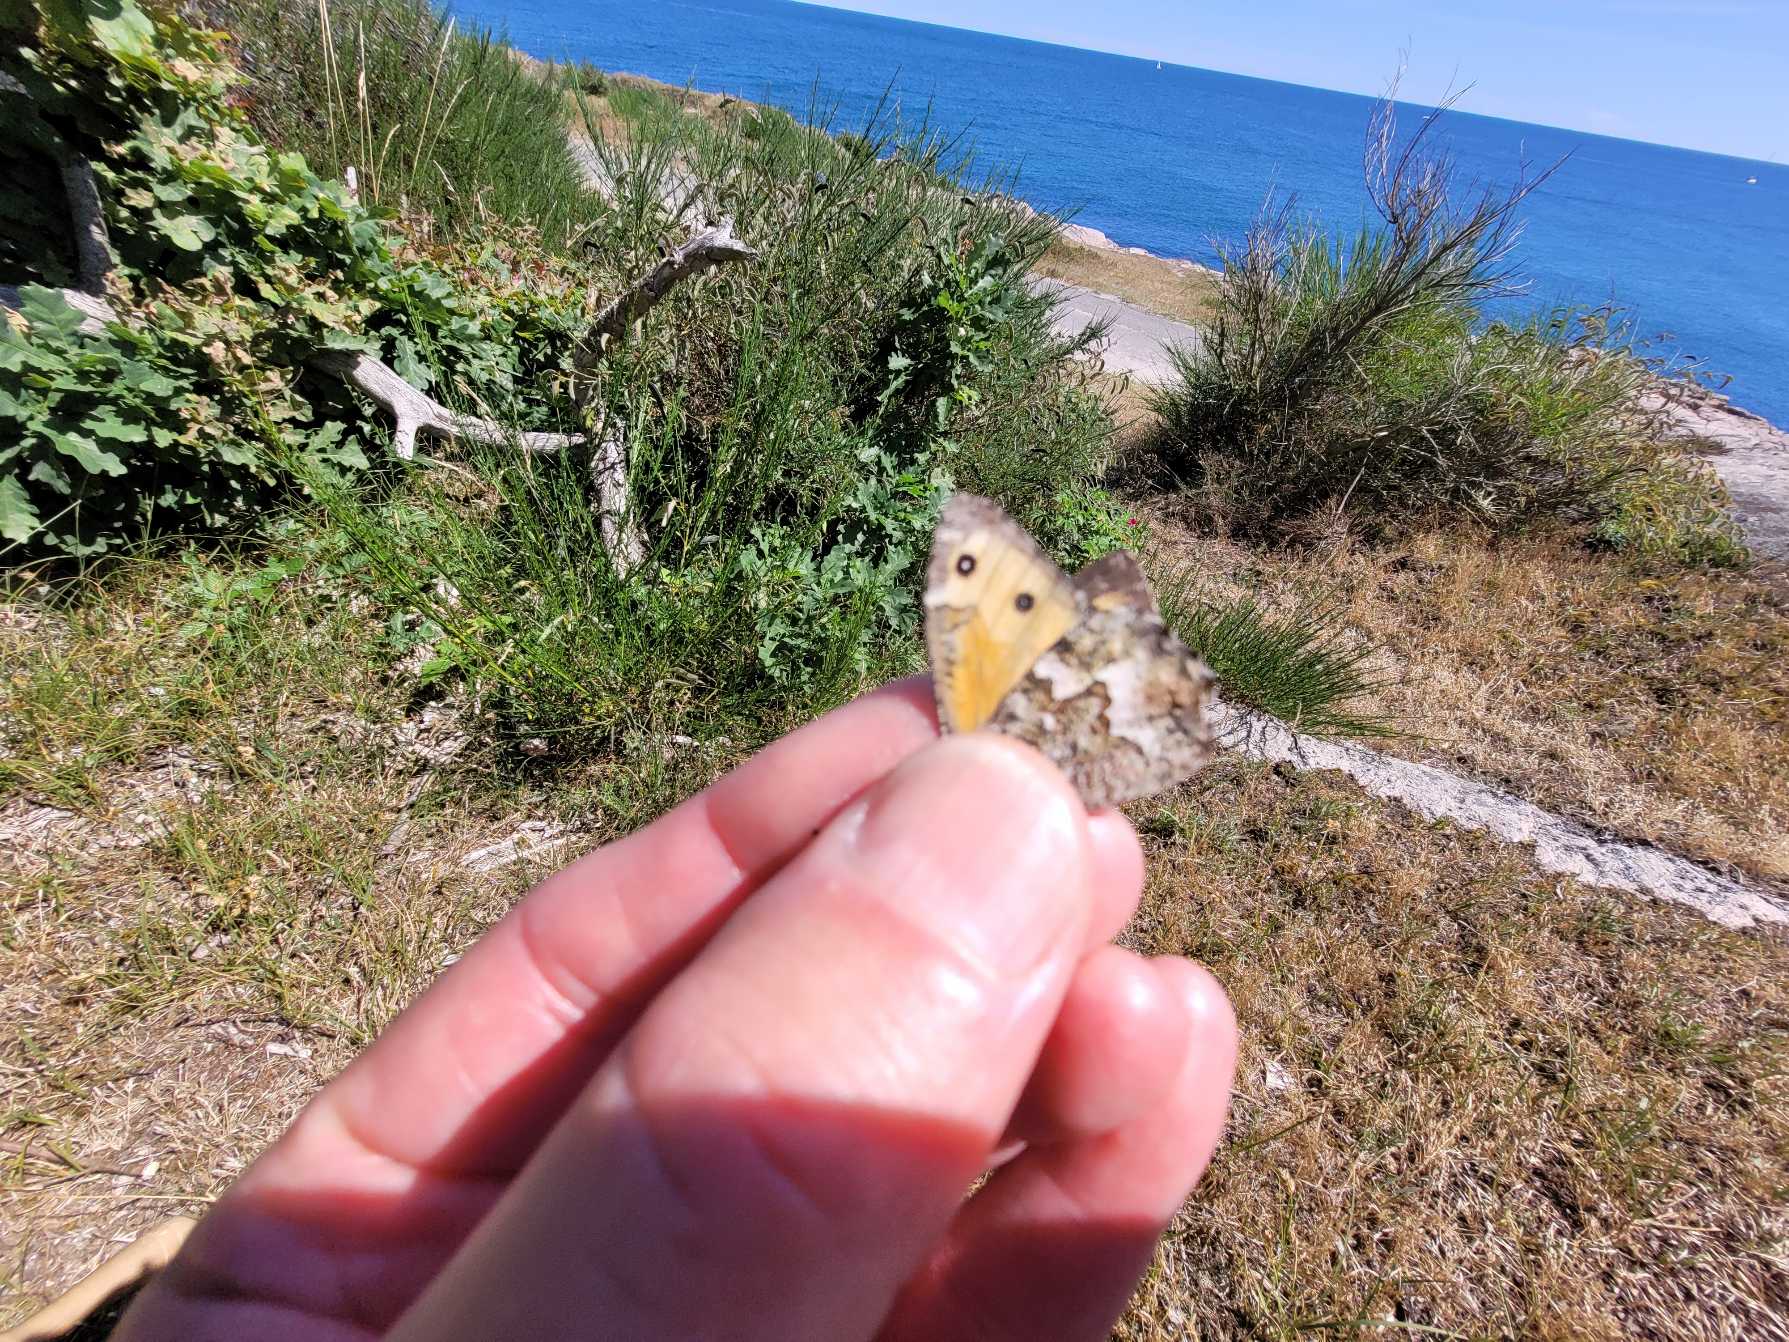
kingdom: Animalia
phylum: Arthropoda
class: Insecta
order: Lepidoptera
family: Nymphalidae
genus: Hipparchia
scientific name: Hipparchia semele
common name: Sandrandøje
